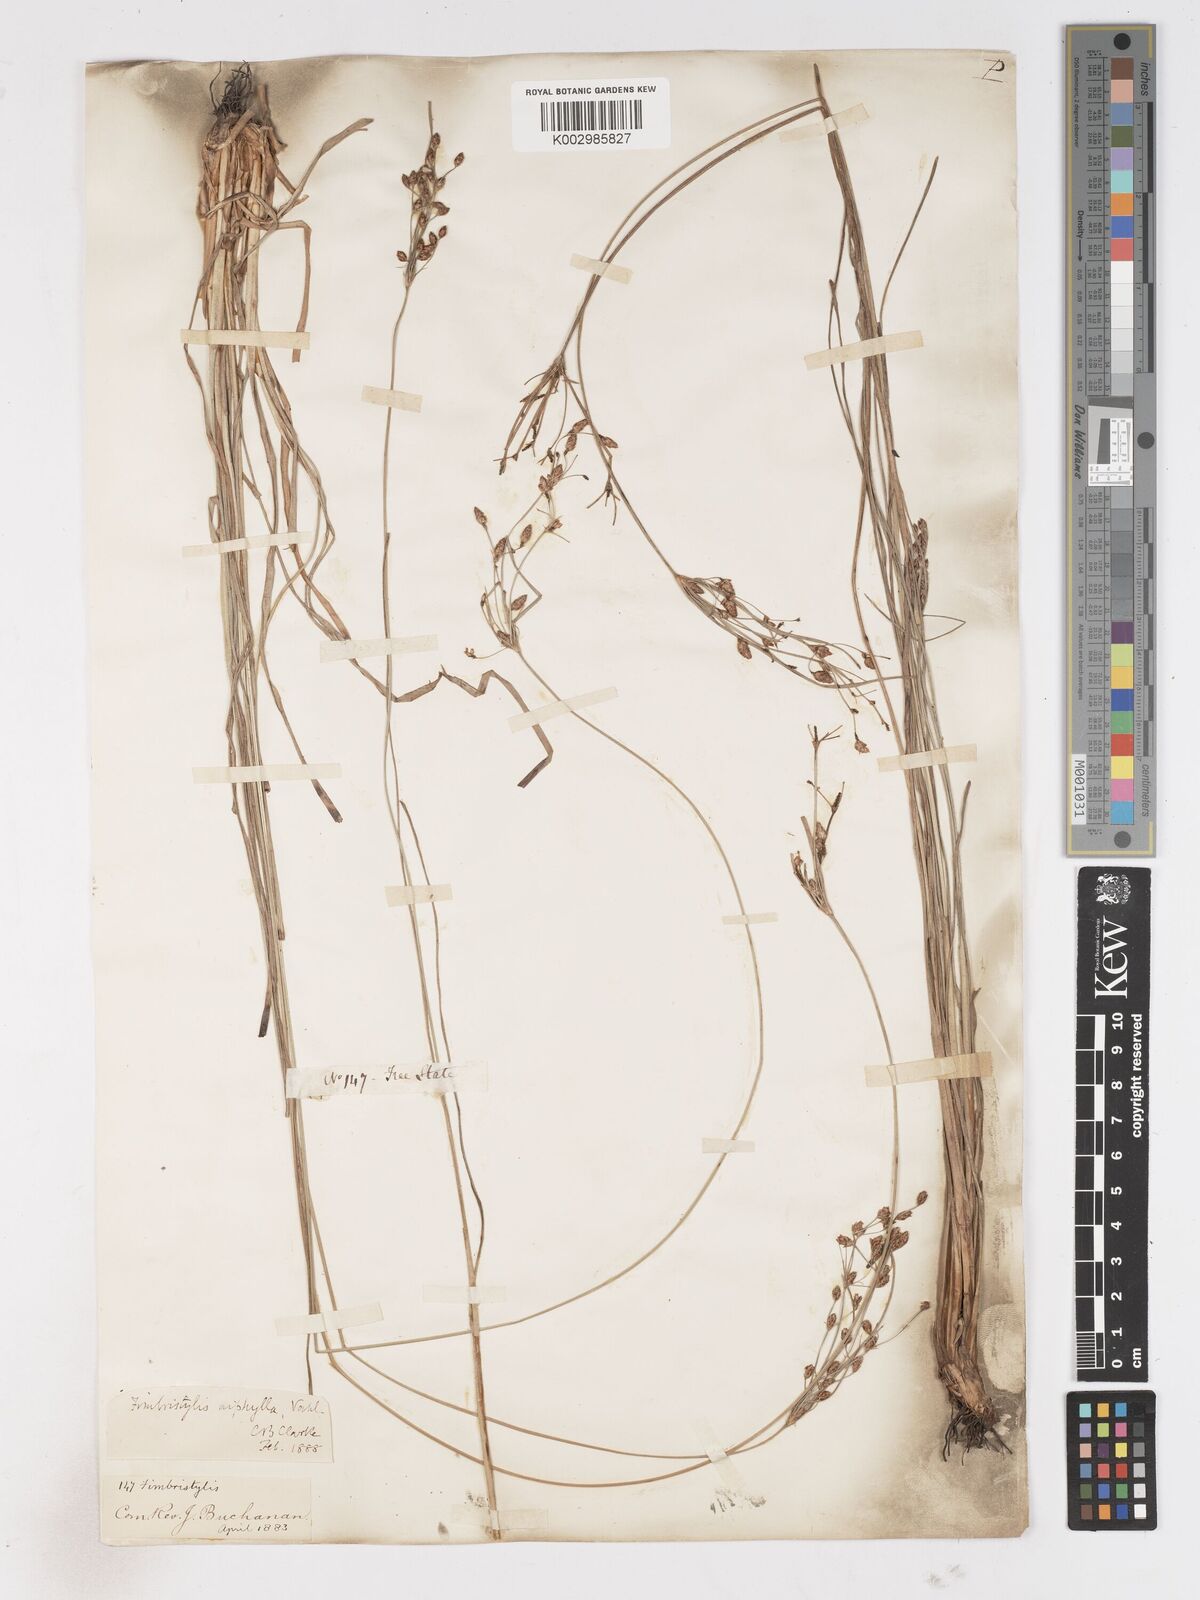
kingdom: Plantae
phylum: Tracheophyta
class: Liliopsida
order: Poales
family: Cyperaceae
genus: Fimbristylis
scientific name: Fimbristylis dichotoma
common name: Forked fimbry
